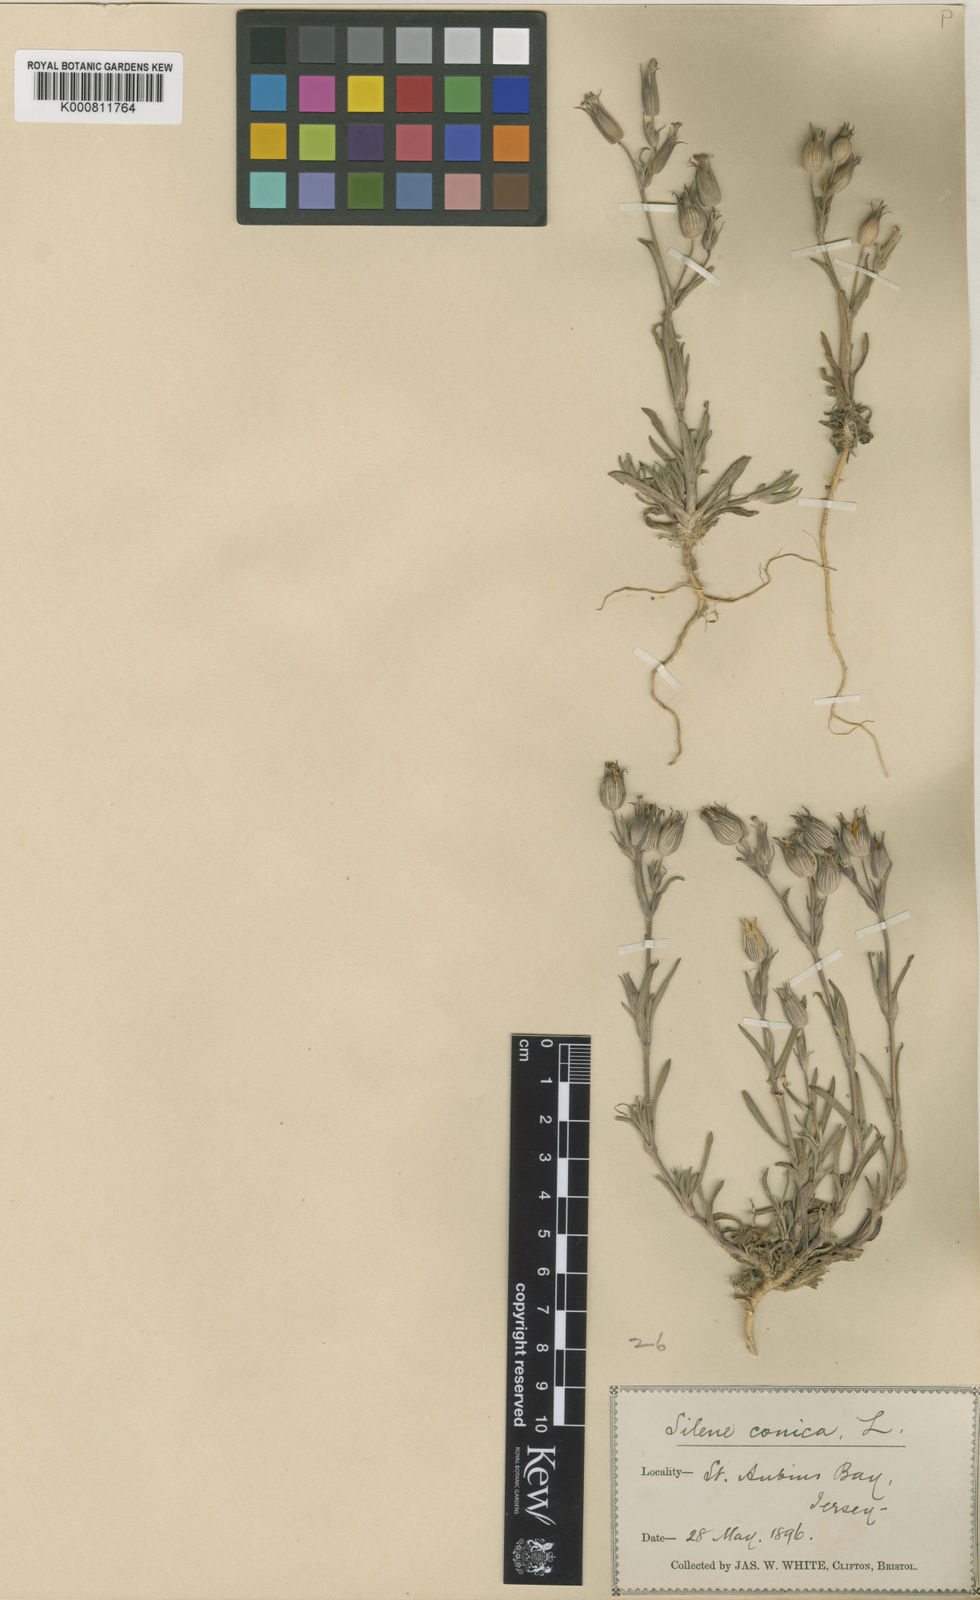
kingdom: Plantae
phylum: Tracheophyta
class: Magnoliopsida
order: Caryophyllales
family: Caryophyllaceae
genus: Silene
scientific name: Silene conica
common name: Sand catchfly
